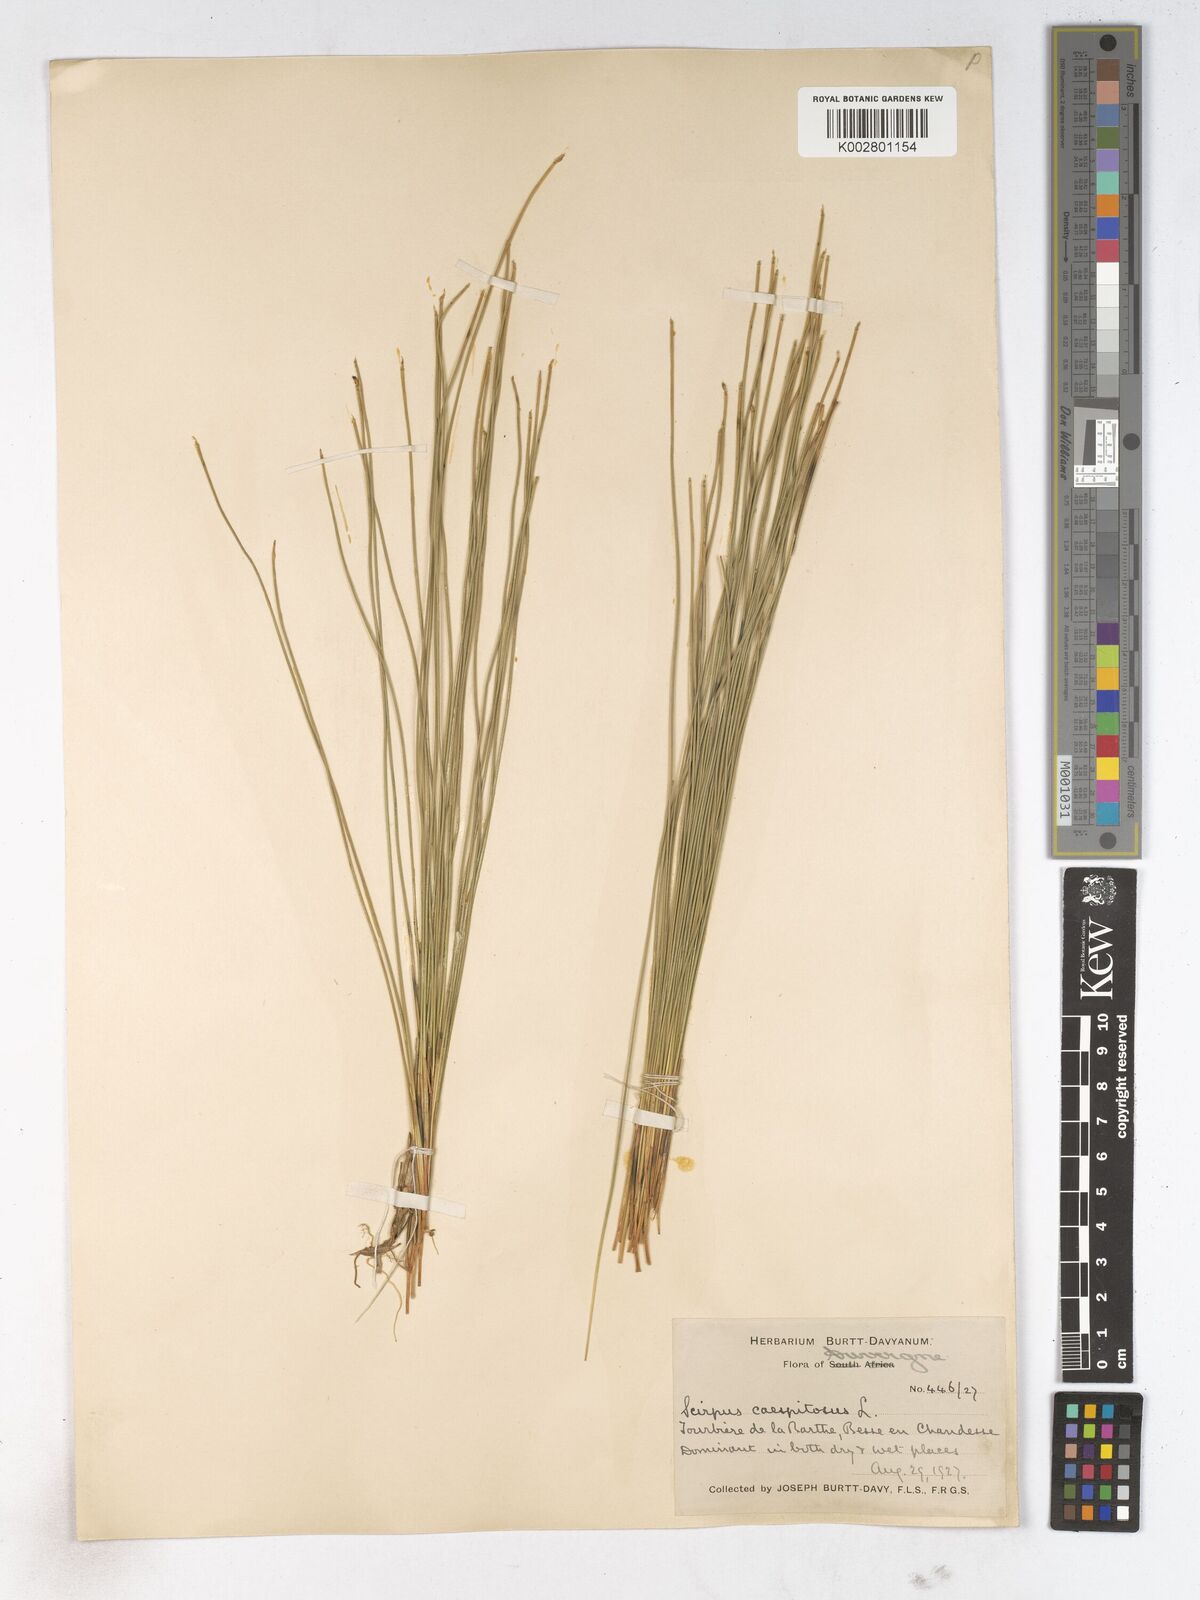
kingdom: Plantae
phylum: Tracheophyta
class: Liliopsida
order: Poales
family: Cyperaceae
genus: Trichophorum
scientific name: Trichophorum cespitosum
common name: Cespitose bulrush
